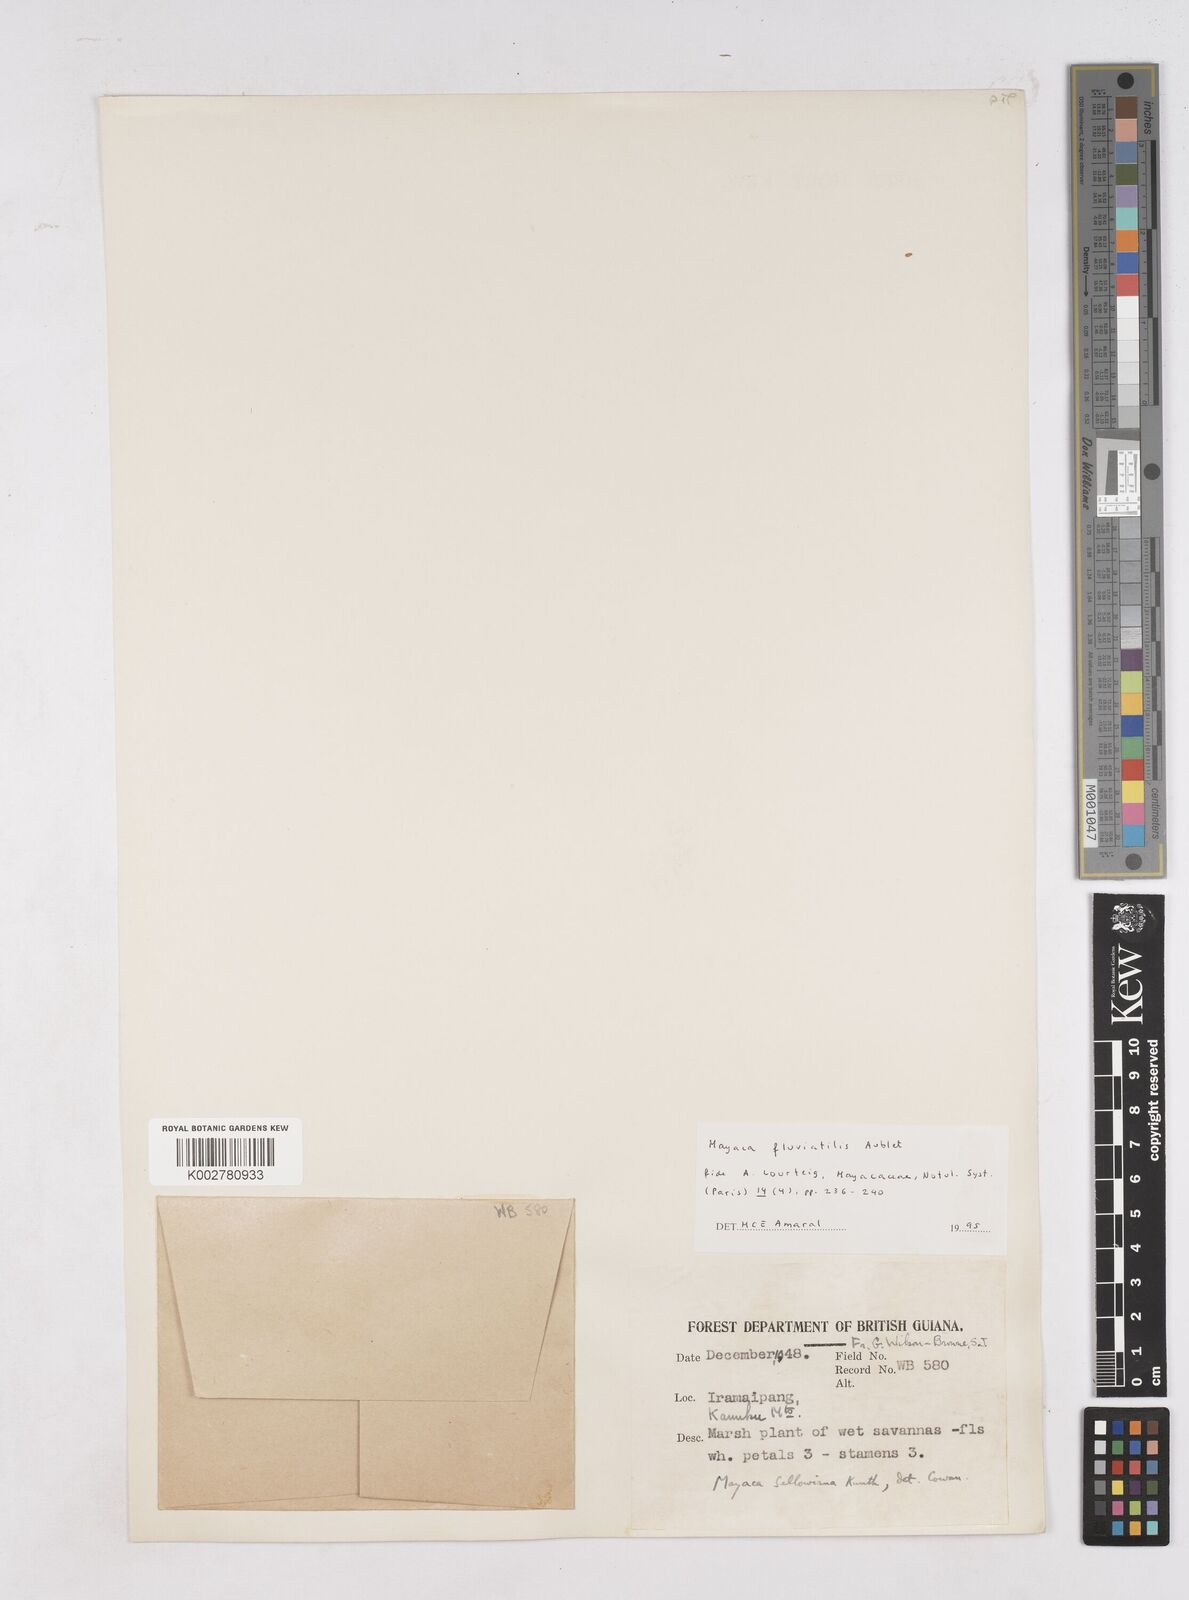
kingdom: Plantae
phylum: Tracheophyta
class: Liliopsida
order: Poales
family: Mayacaceae
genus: Mayaca
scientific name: Mayaca fluviatilis
